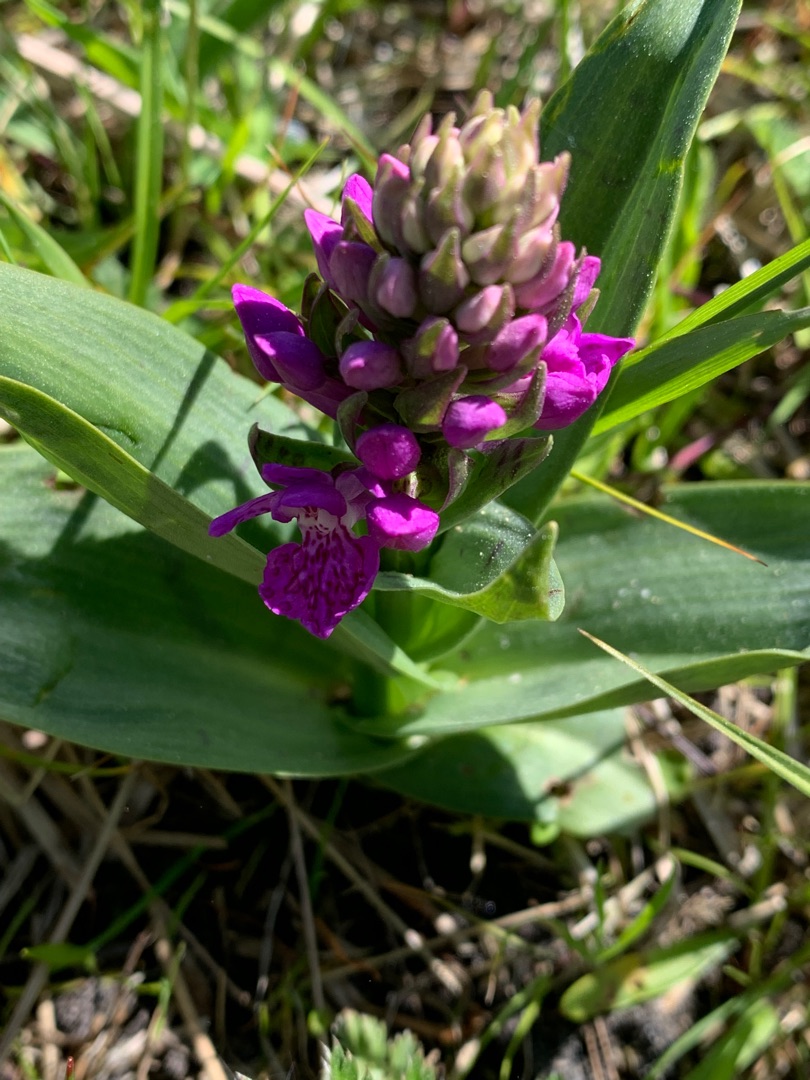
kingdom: Plantae
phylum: Tracheophyta
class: Liliopsida
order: Asparagales
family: Orchidaceae
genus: Dactylorhiza
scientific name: Dactylorhiza majalis
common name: Purpur-gøgeurt
